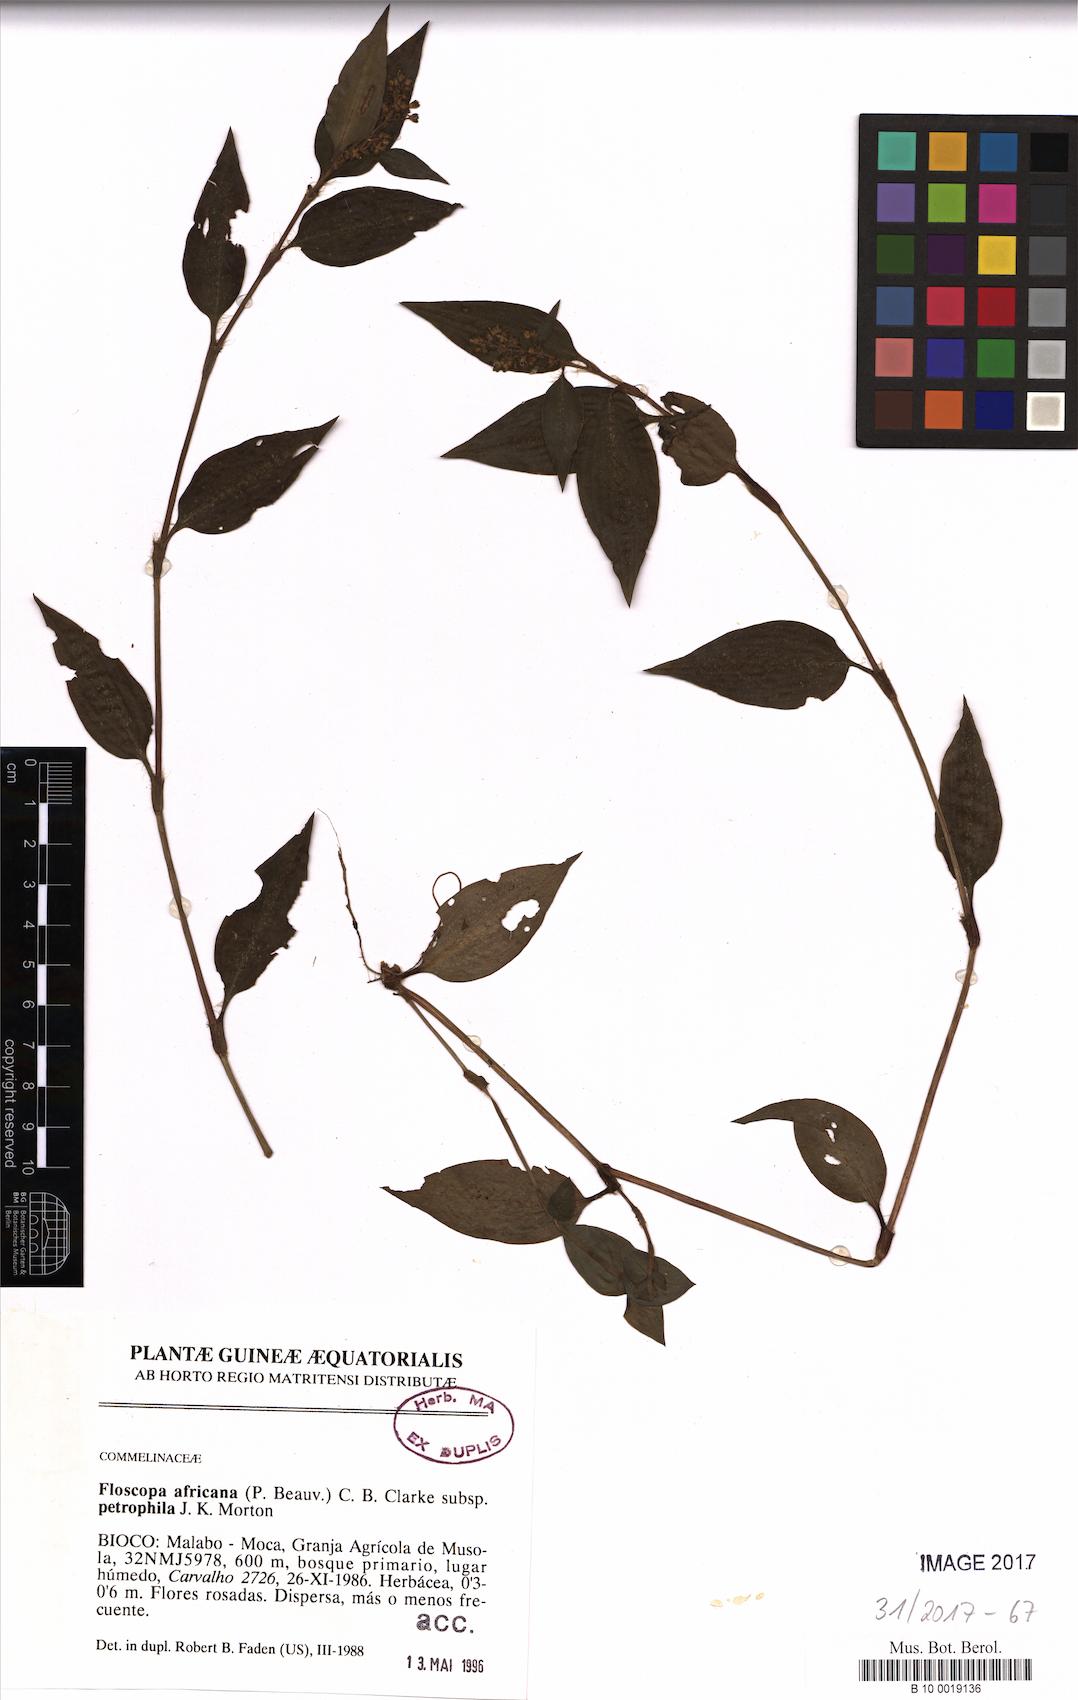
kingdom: Plantae
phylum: Tracheophyta
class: Liliopsida
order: Commelinales
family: Commelinaceae
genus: Floscopa
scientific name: Floscopa africana
